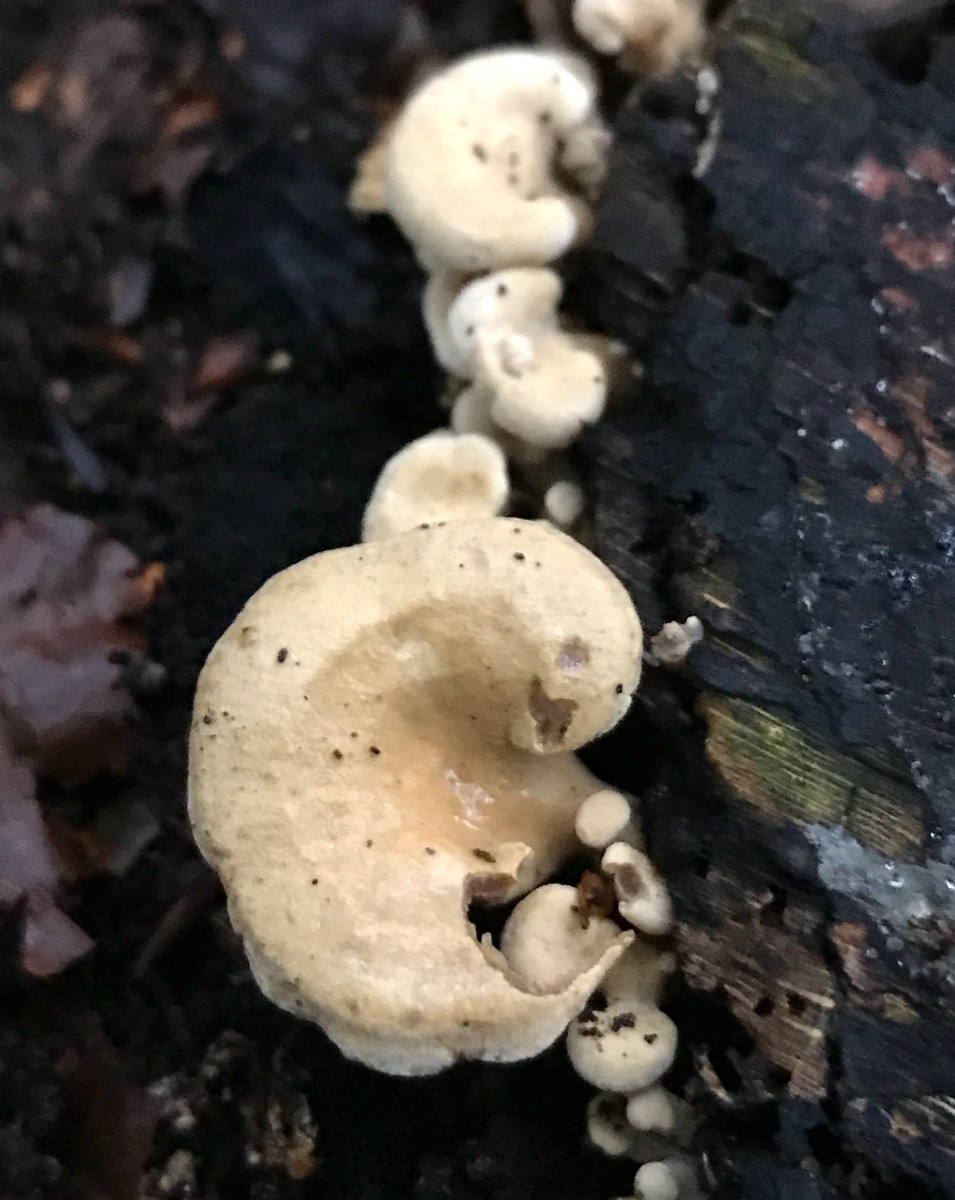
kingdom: Fungi
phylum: Basidiomycota
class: Agaricomycetes
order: Agaricales
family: Mycenaceae
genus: Panellus
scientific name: Panellus stipticus
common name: kliddet epaulethat
